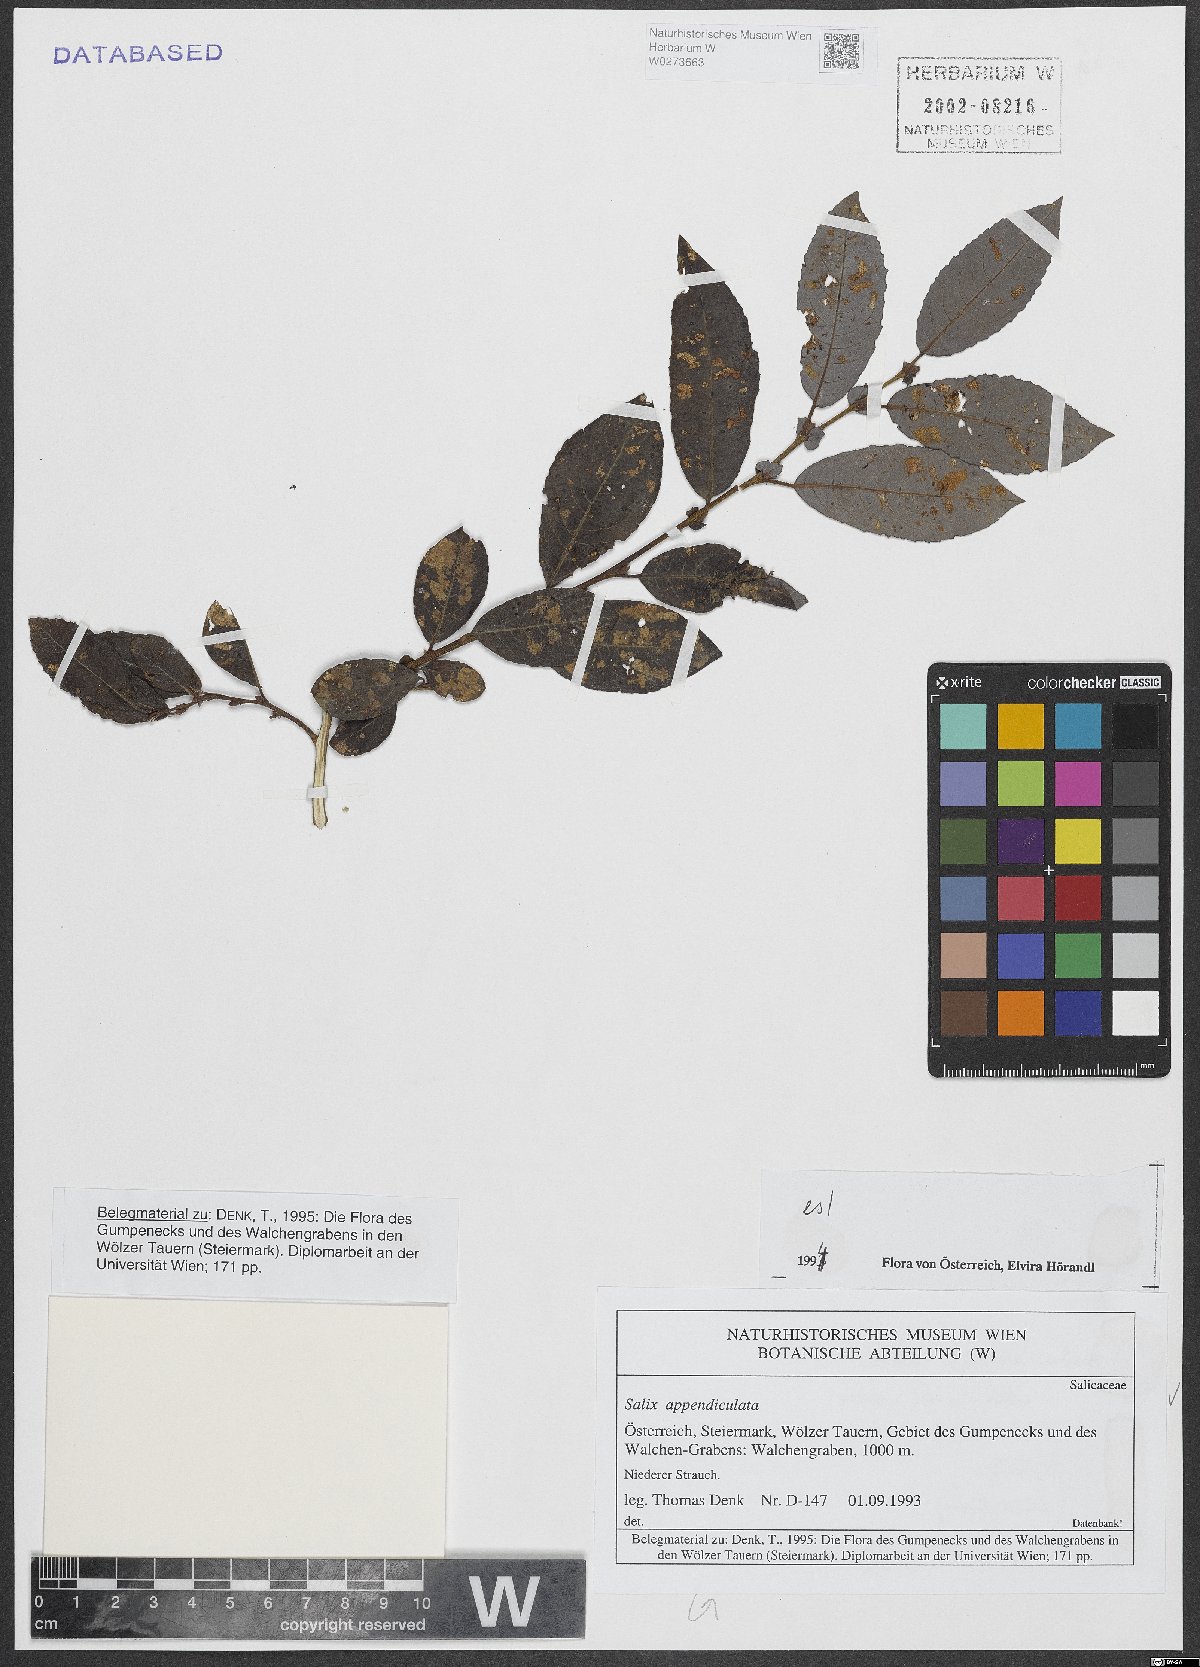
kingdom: Plantae
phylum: Tracheophyta
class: Magnoliopsida
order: Malpighiales
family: Salicaceae
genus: Salix
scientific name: Salix appendiculata
